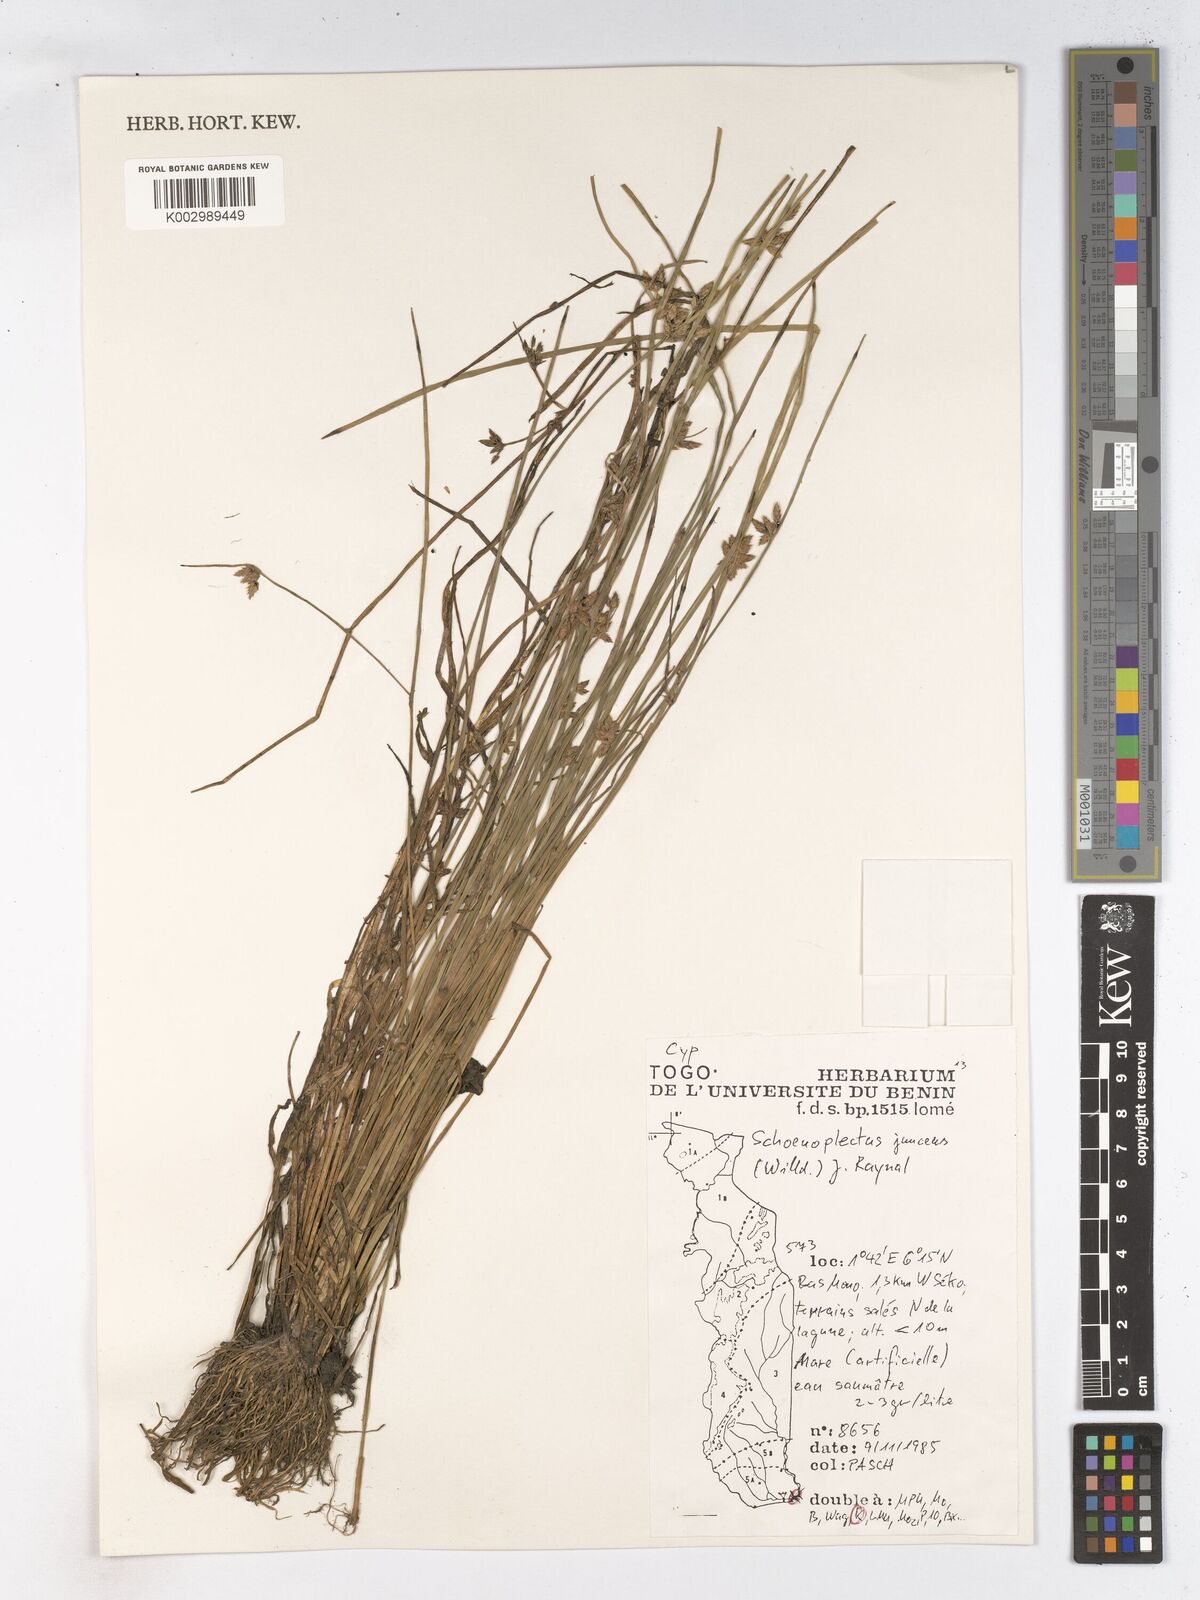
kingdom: Plantae
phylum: Tracheophyta
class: Liliopsida
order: Poales
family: Cyperaceae
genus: Schoenoplectiella
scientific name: Schoenoplectiella juncea
